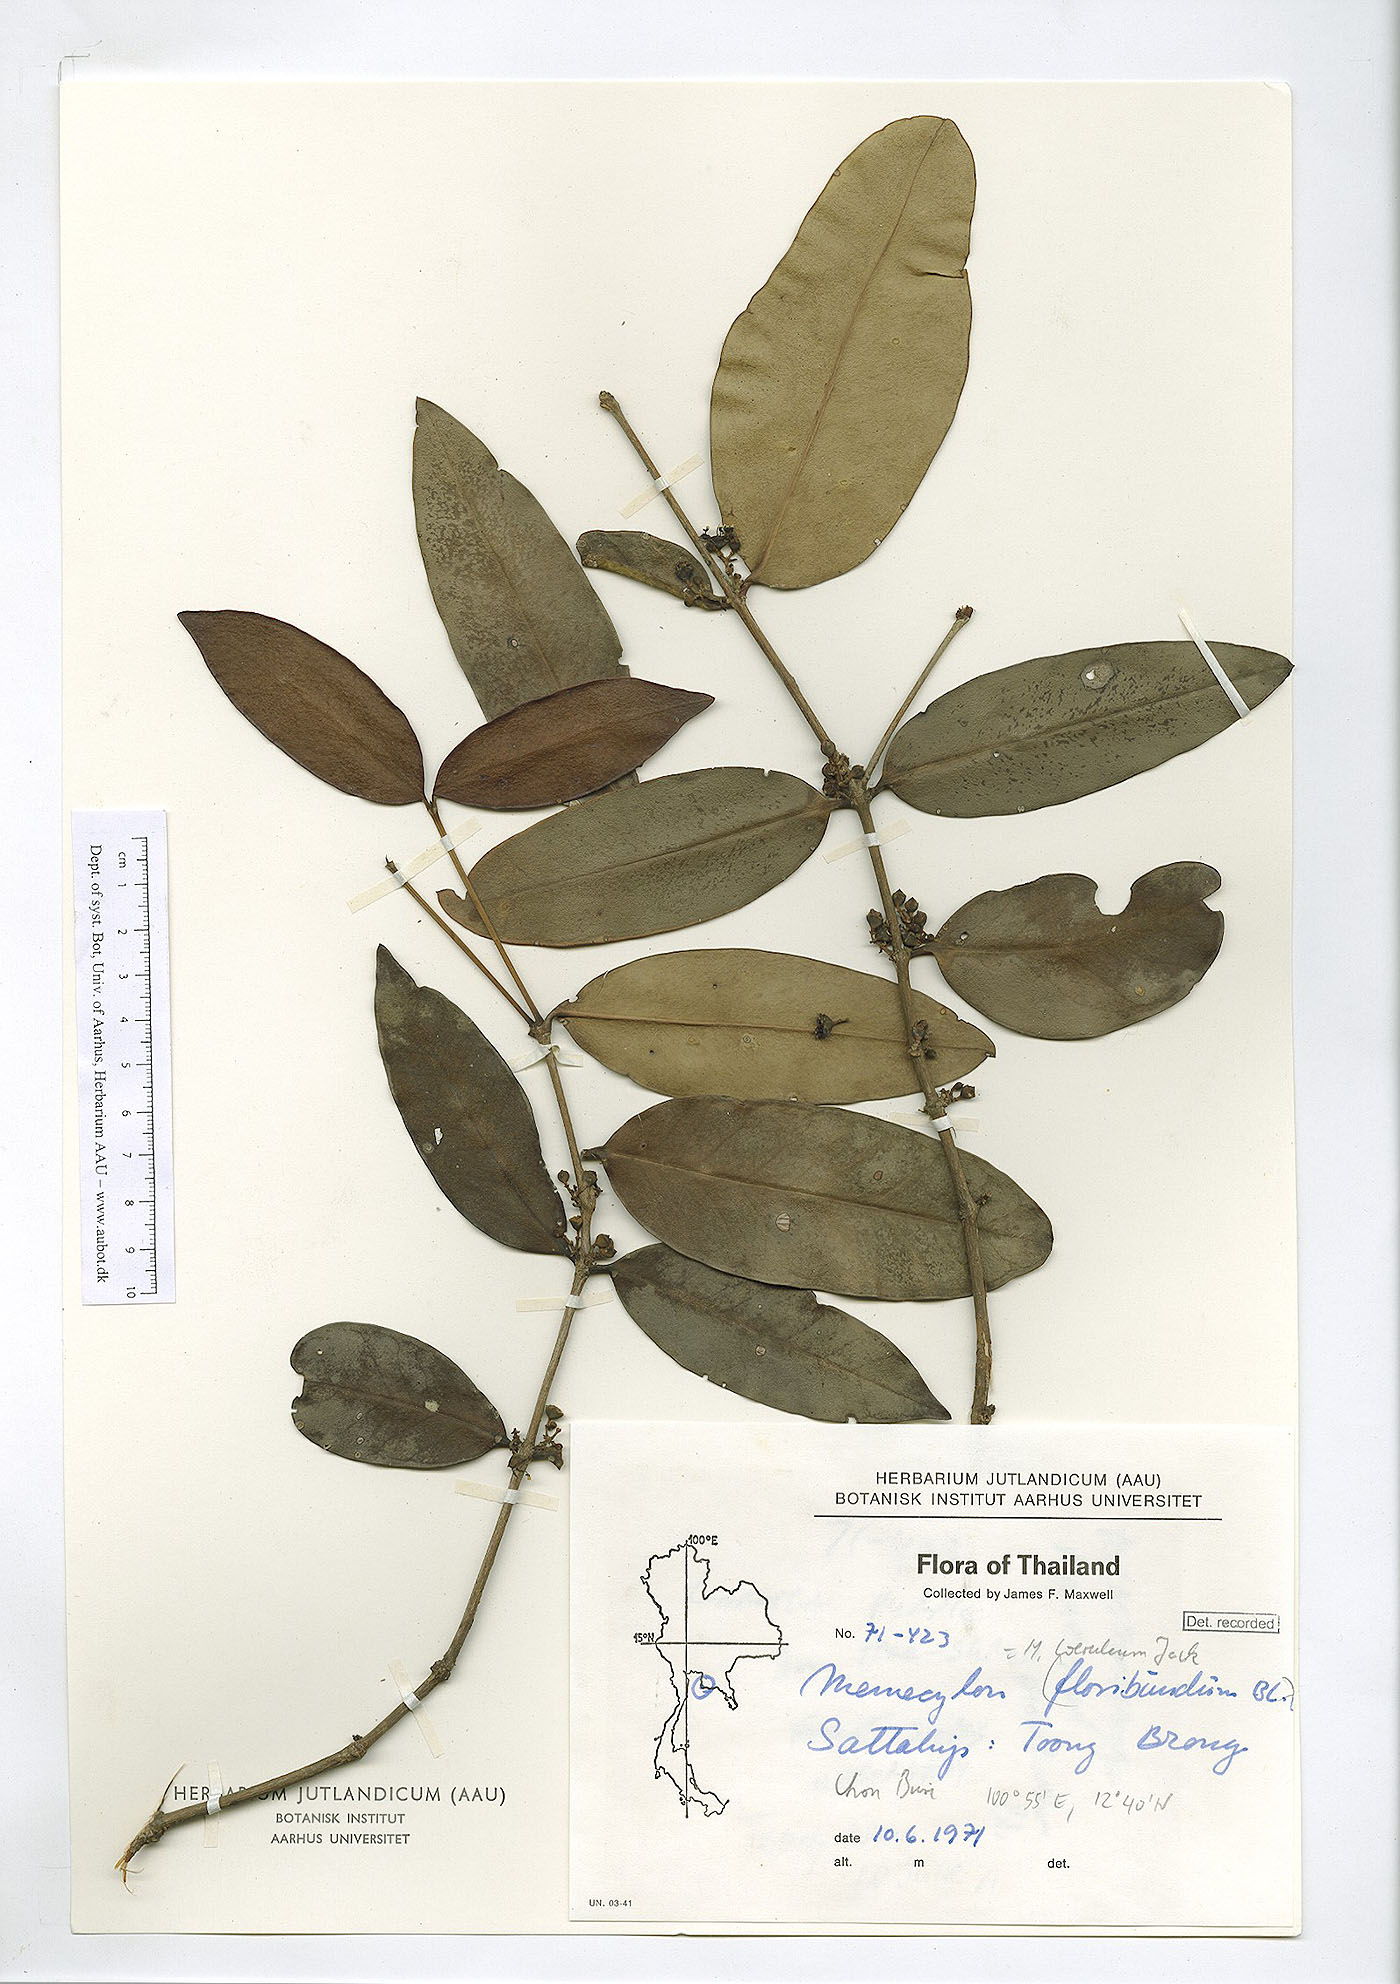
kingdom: Plantae
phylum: Tracheophyta
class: Magnoliopsida
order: Myrtales
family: Melastomataceae
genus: Memecylon
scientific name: Memecylon caeruleum
